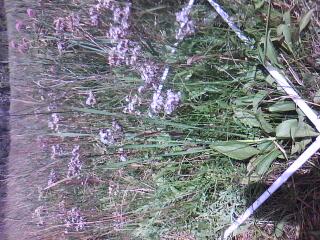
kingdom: Plantae
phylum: Tracheophyta
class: Liliopsida
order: Poales
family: Cyperaceae
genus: Schoenoplectus
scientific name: Schoenoplectus pungens
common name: Sharp club-rush
